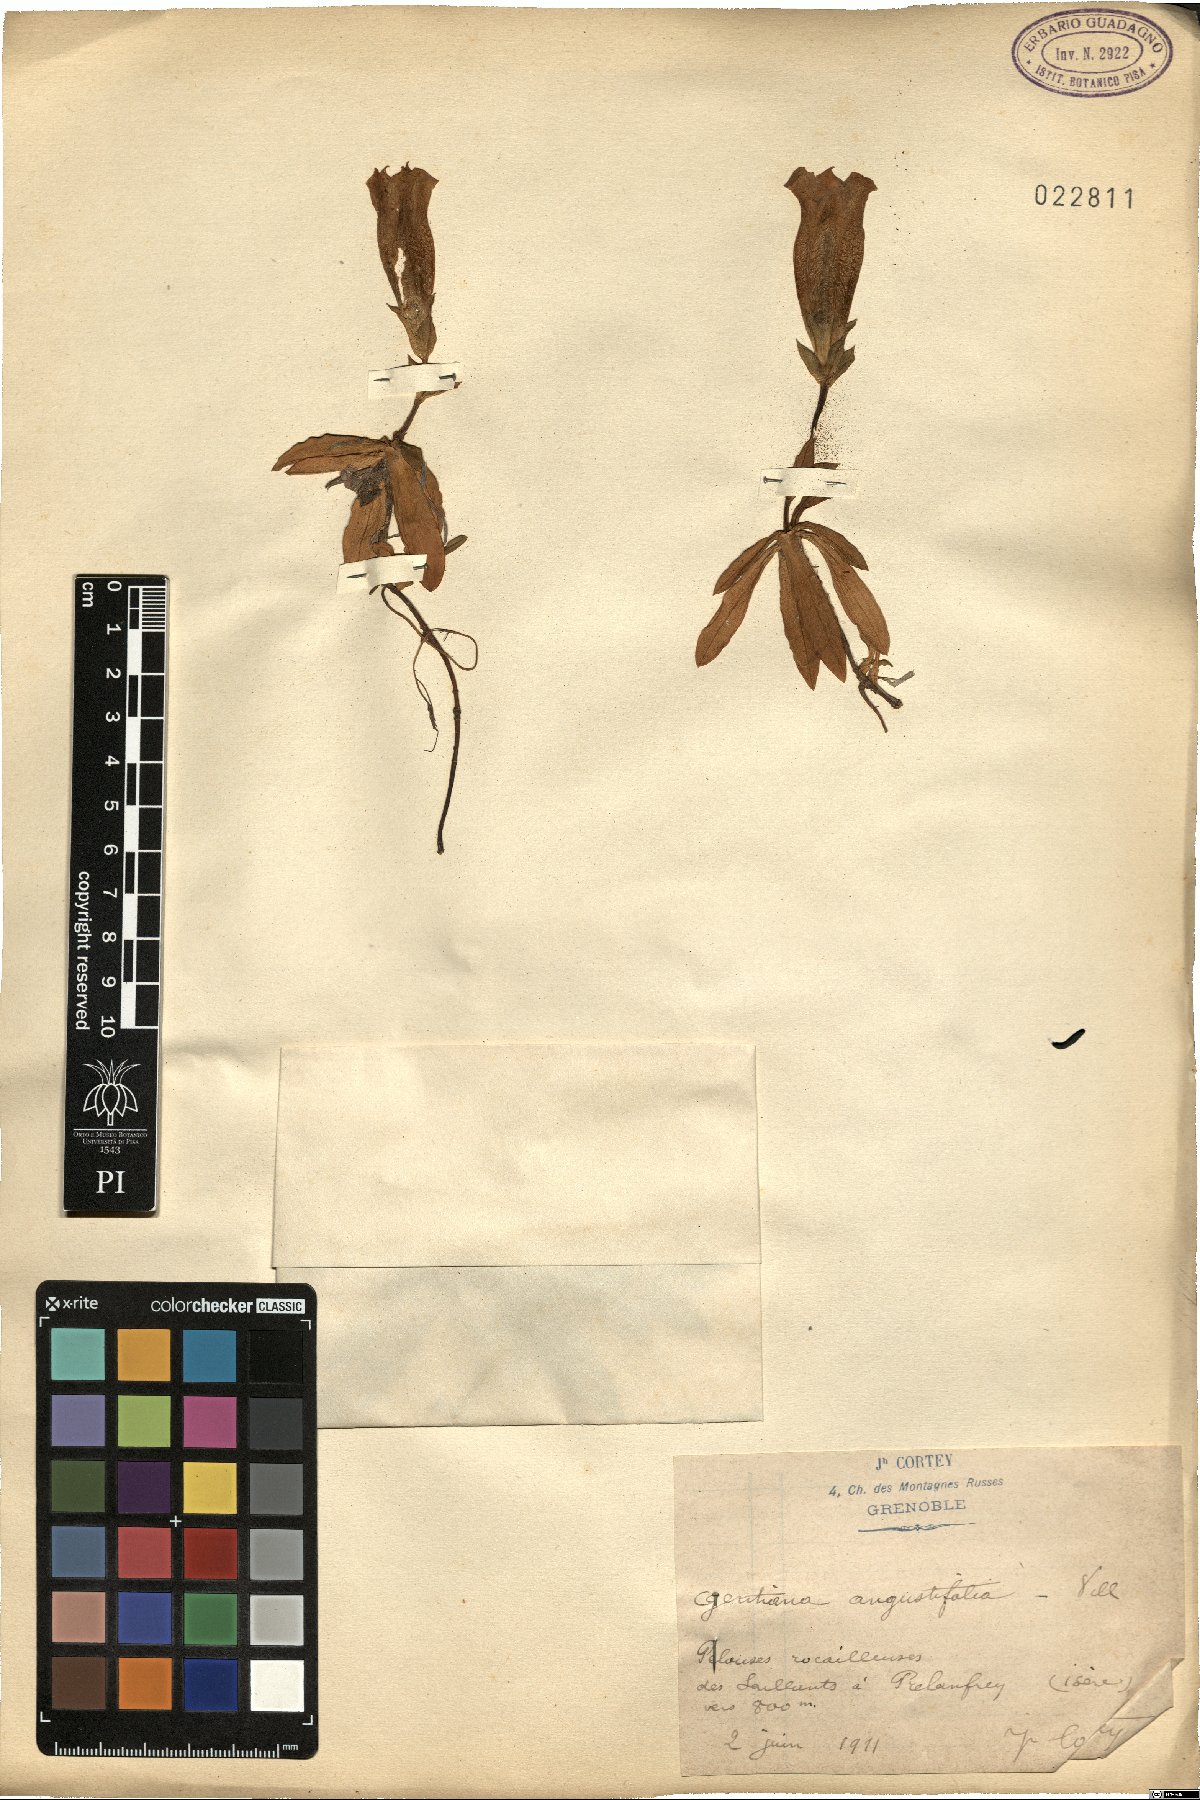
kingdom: Plantae
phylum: Tracheophyta
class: Magnoliopsida
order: Gentianales
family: Gentianaceae
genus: Gentiana
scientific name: Gentiana angustifolia
